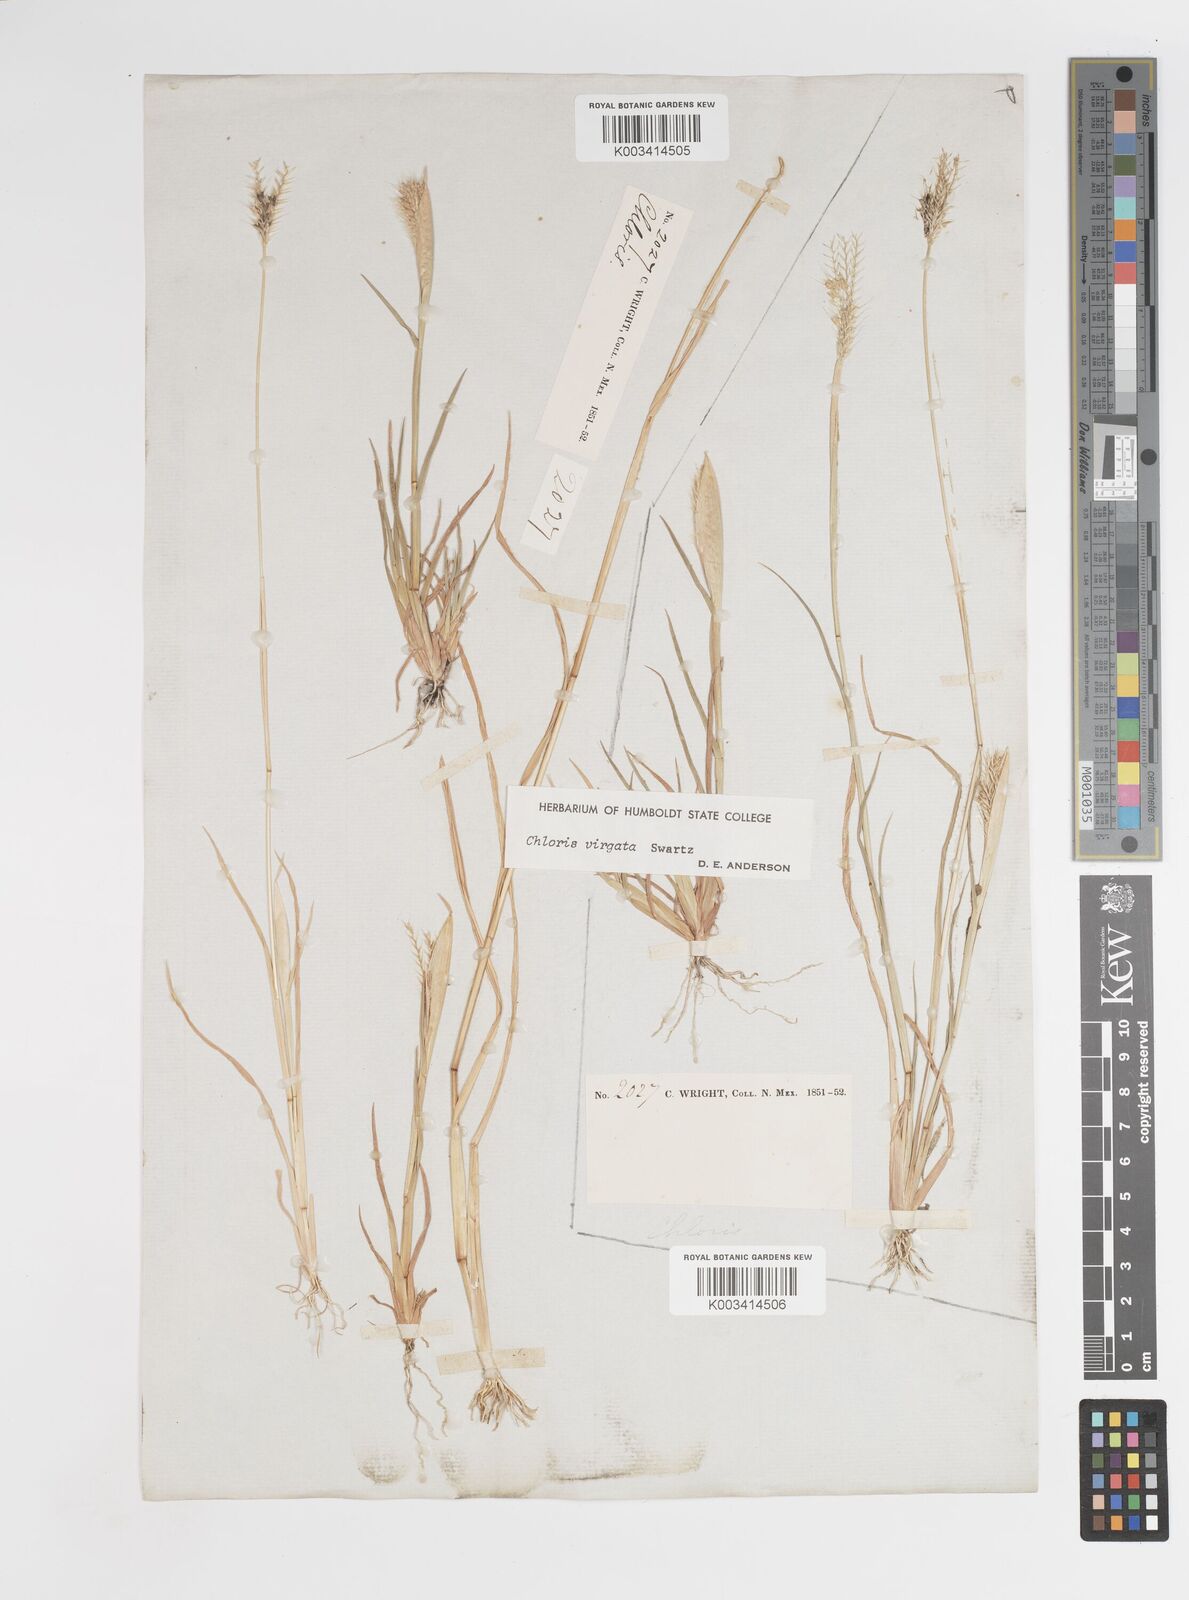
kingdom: Plantae
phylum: Tracheophyta
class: Liliopsida
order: Poales
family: Poaceae
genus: Chloris
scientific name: Chloris virgata
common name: Feathery rhodes-grass
